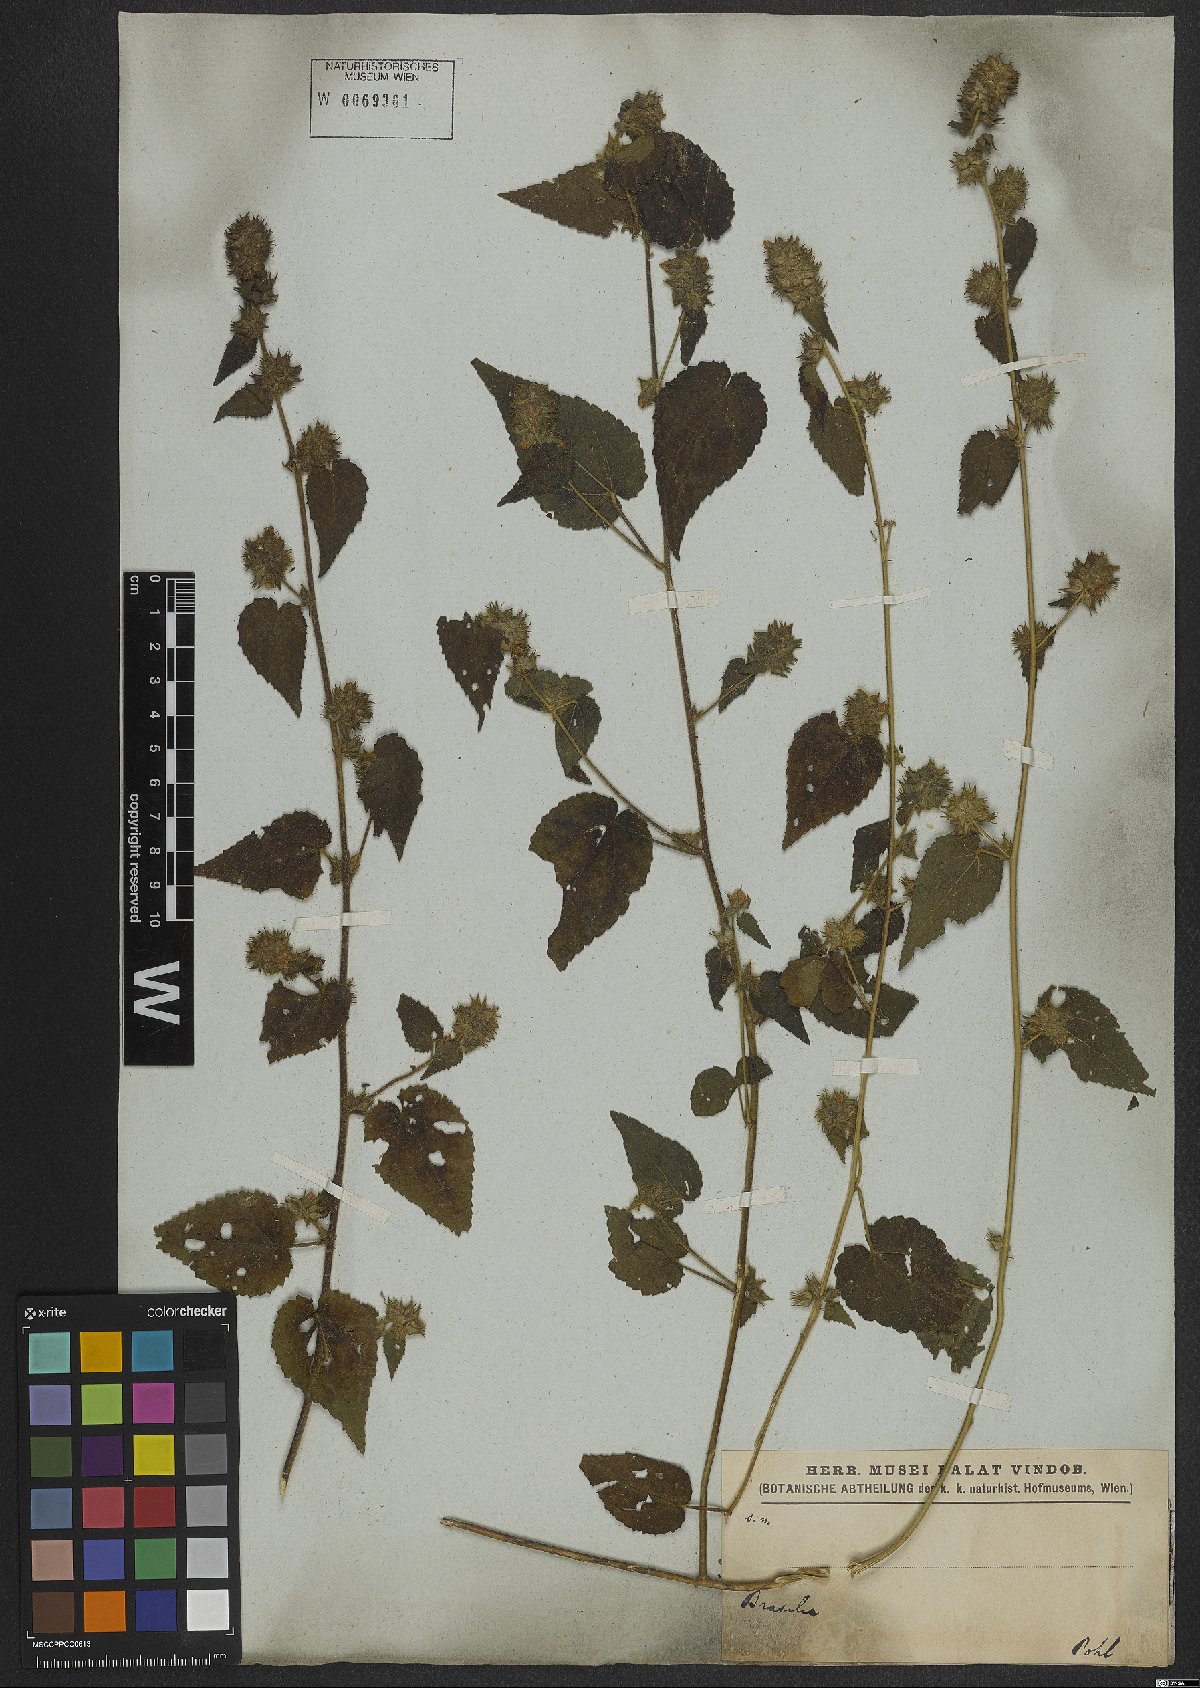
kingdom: Plantae
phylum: Tracheophyta
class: Magnoliopsida
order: Malvales
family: Malvaceae
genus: Sida
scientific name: Sida urens
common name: Tropical fanpetals
